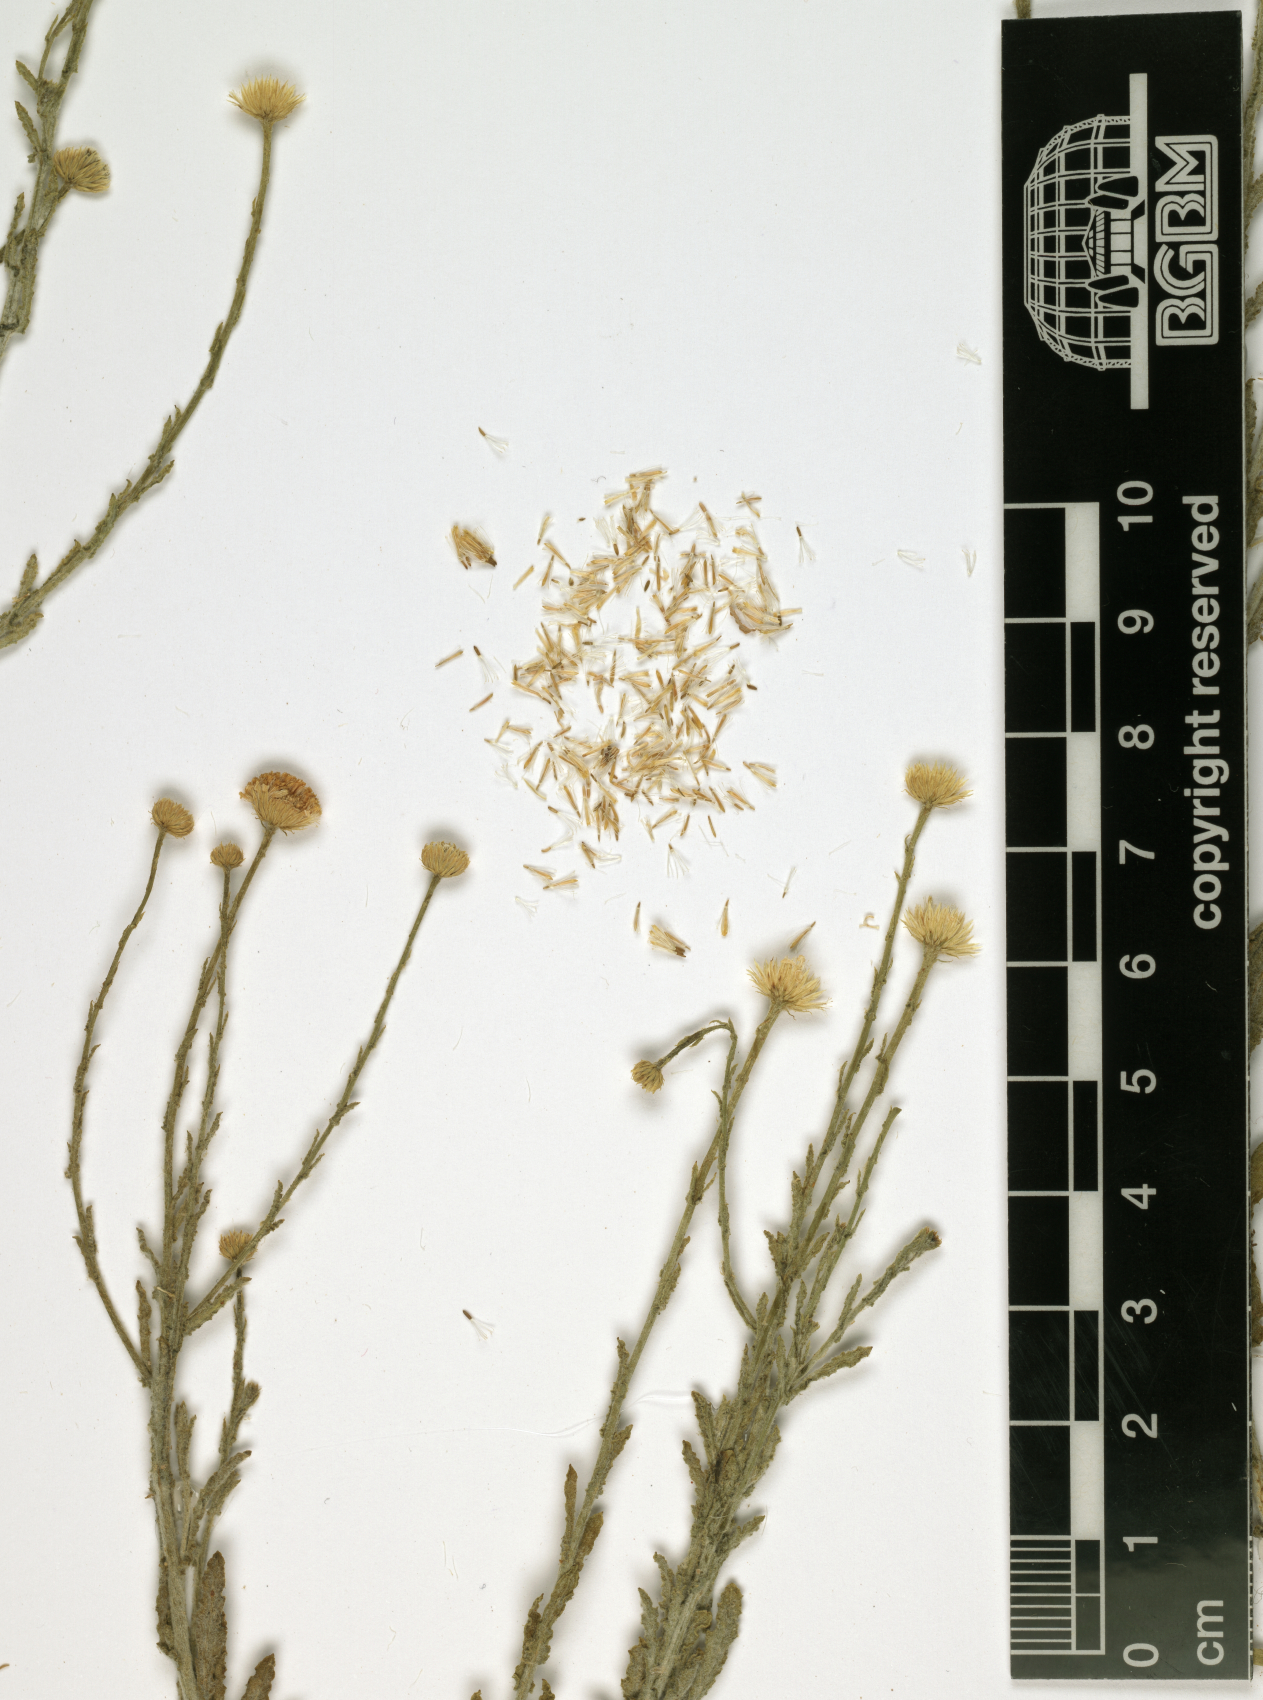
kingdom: Plantae
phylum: Tracheophyta
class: Magnoliopsida
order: Asterales
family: Asteraceae
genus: Pulicaria
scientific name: Pulicaria undulata
